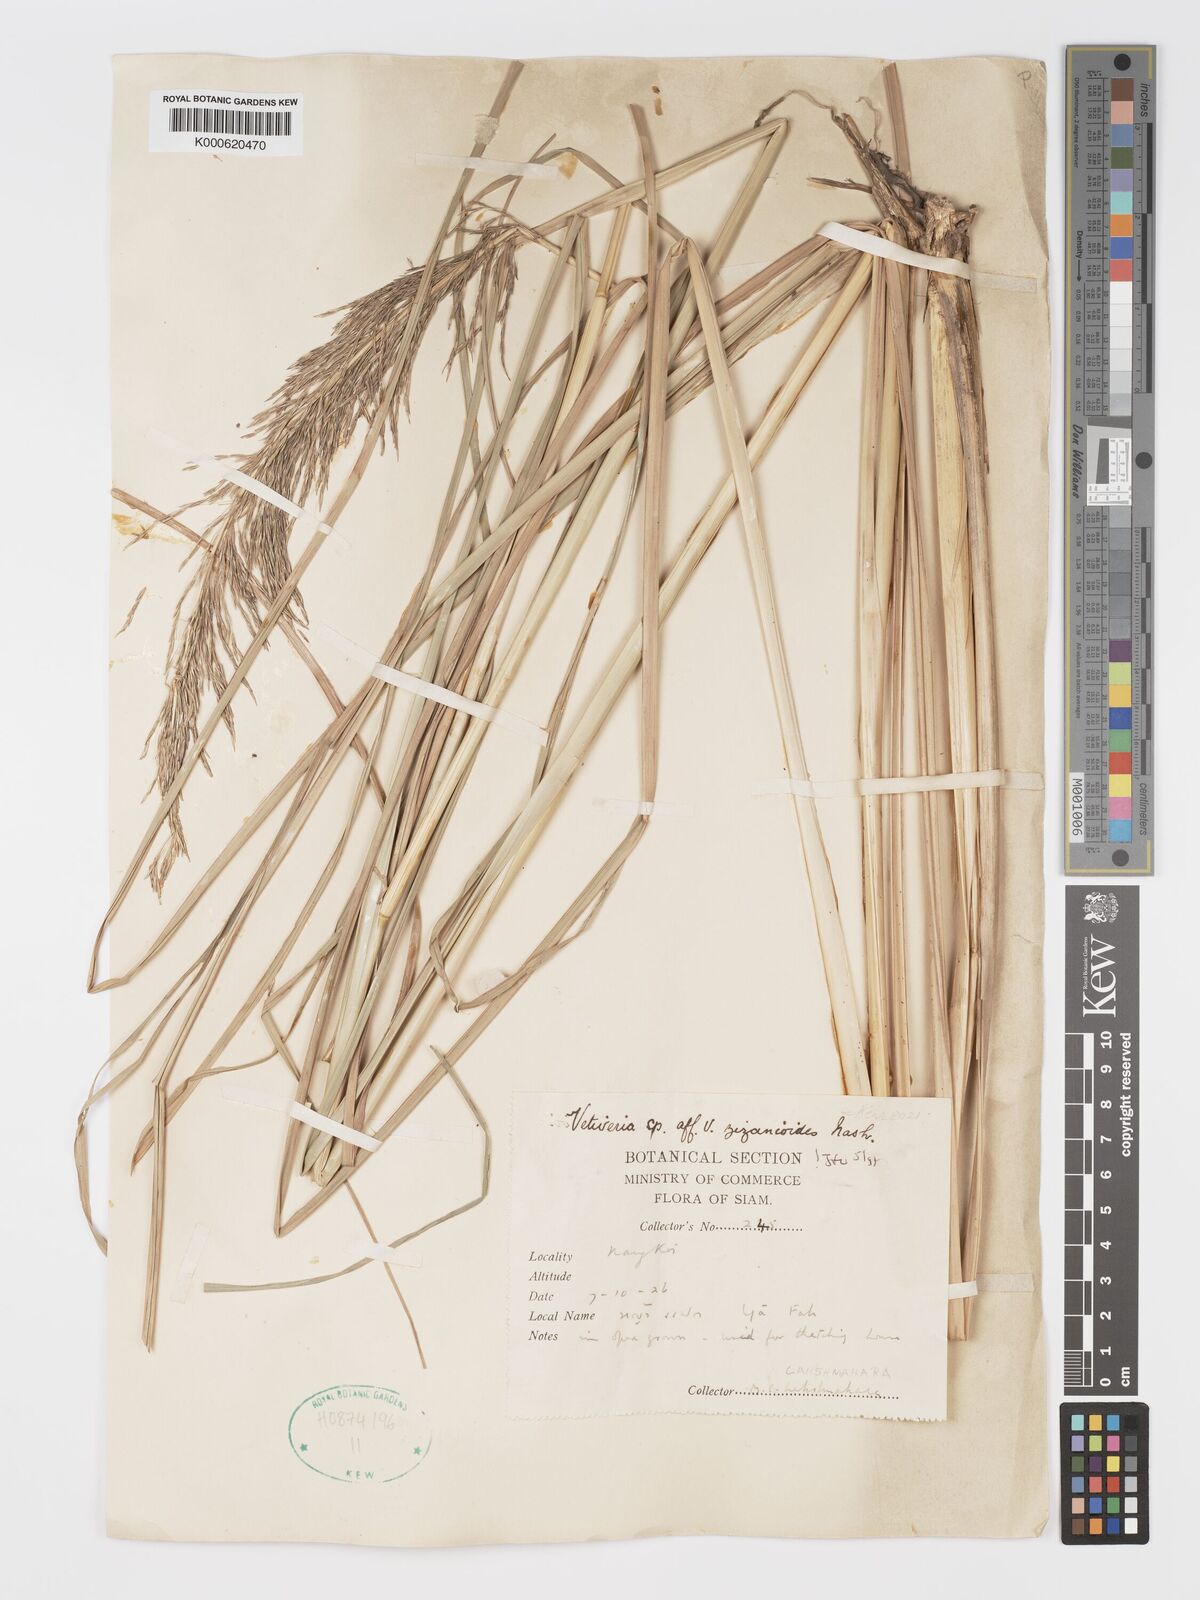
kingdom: Plantae
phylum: Tracheophyta
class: Liliopsida
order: Poales
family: Poaceae
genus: Chrysopogon
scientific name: Chrysopogon zizanioides
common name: False beardgrass
